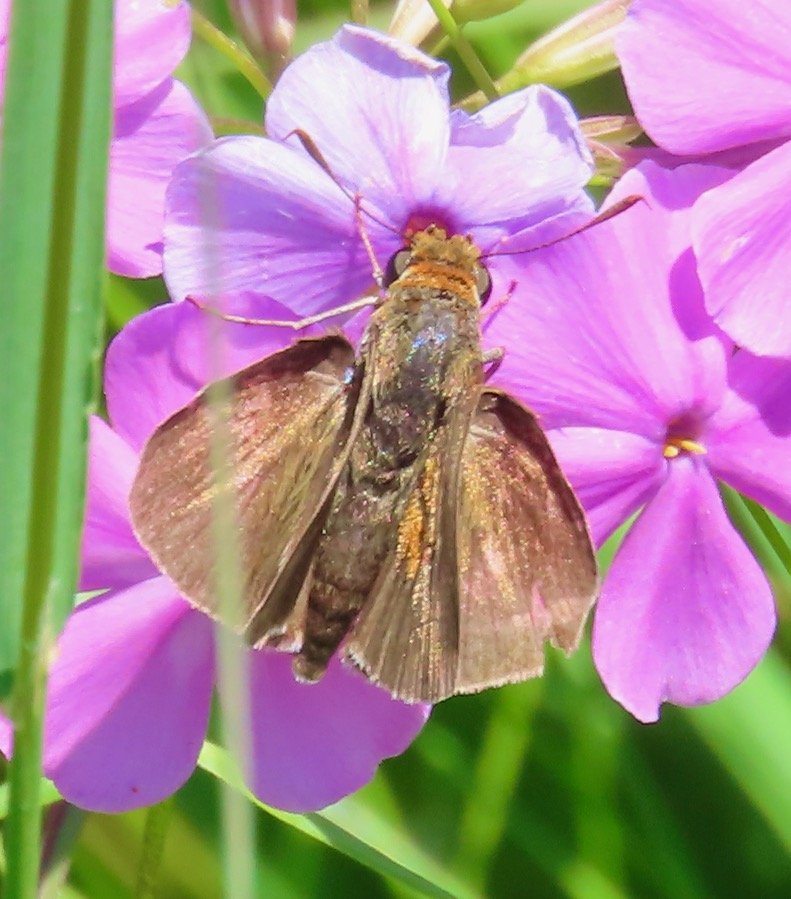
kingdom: Animalia
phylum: Arthropoda
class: Insecta
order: Lepidoptera
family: Hesperiidae
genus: Euphyes
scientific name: Euphyes bimacula
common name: Two-spotted Skipper
